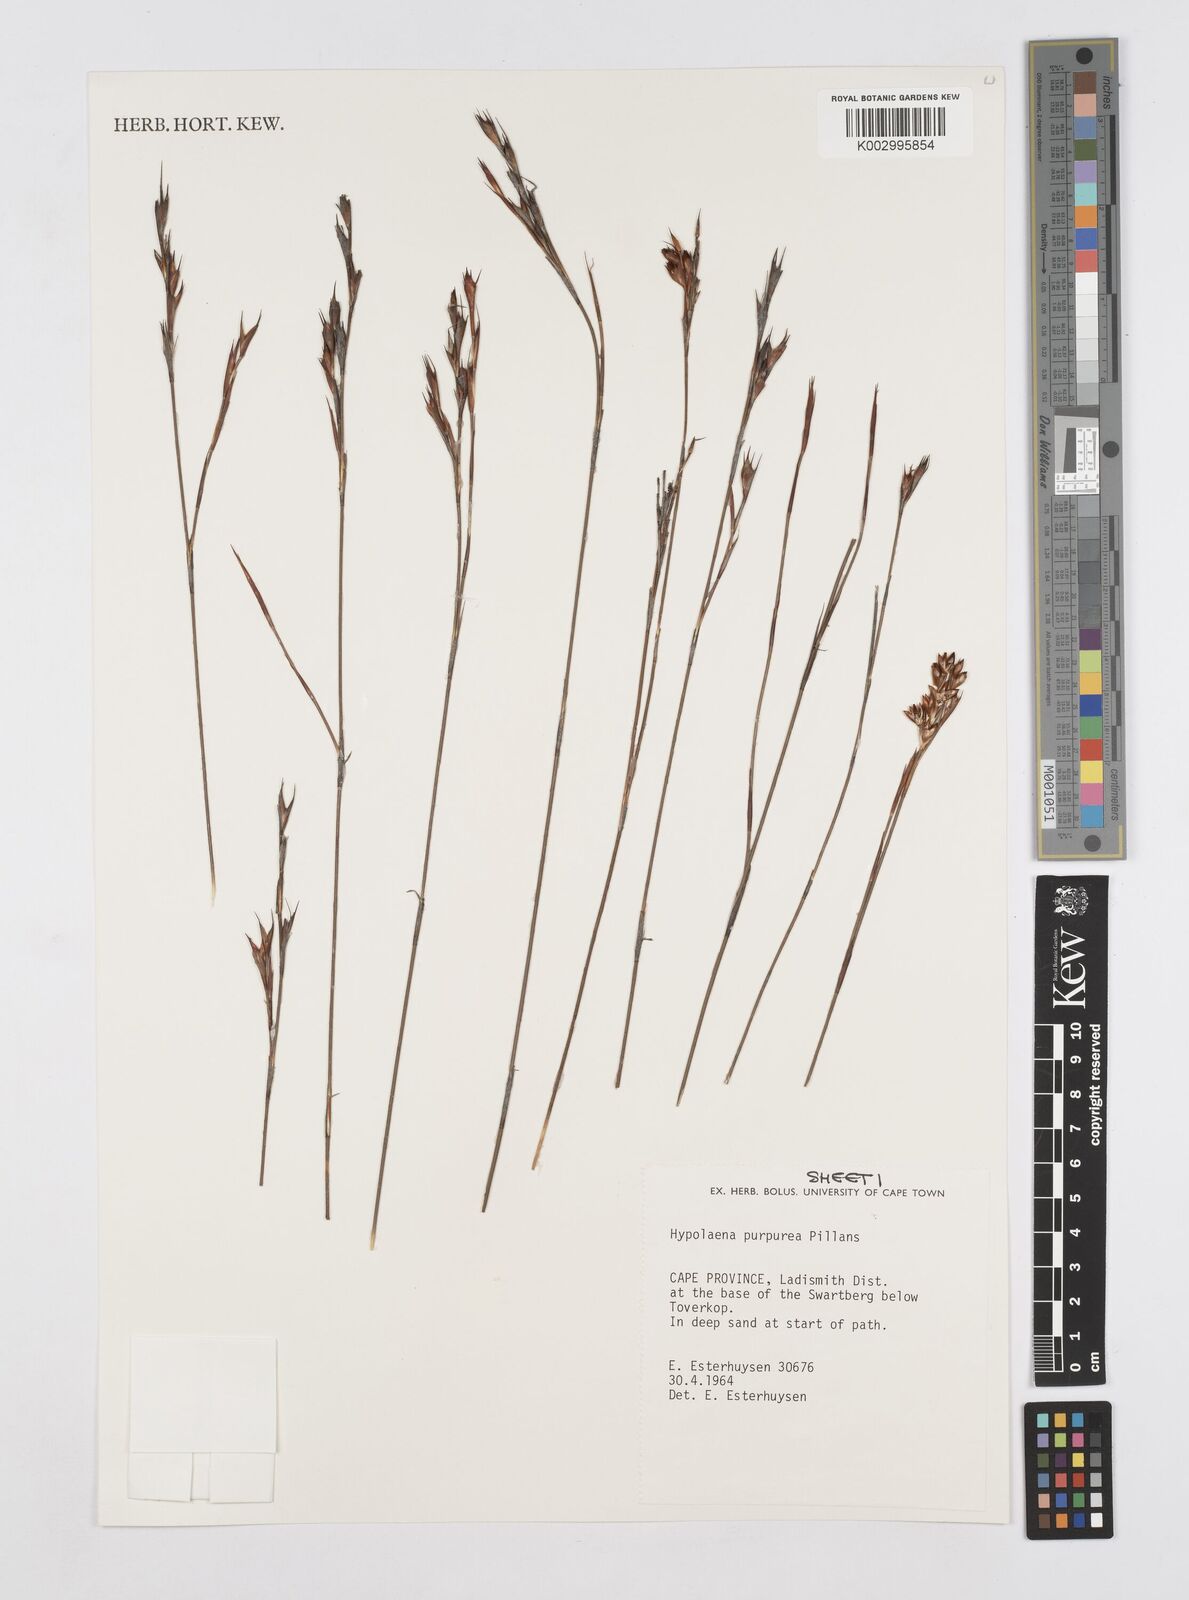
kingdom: Plantae
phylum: Tracheophyta
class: Liliopsida
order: Poales
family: Restionaceae
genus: Mastersiella
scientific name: Mastersiella purpurea
